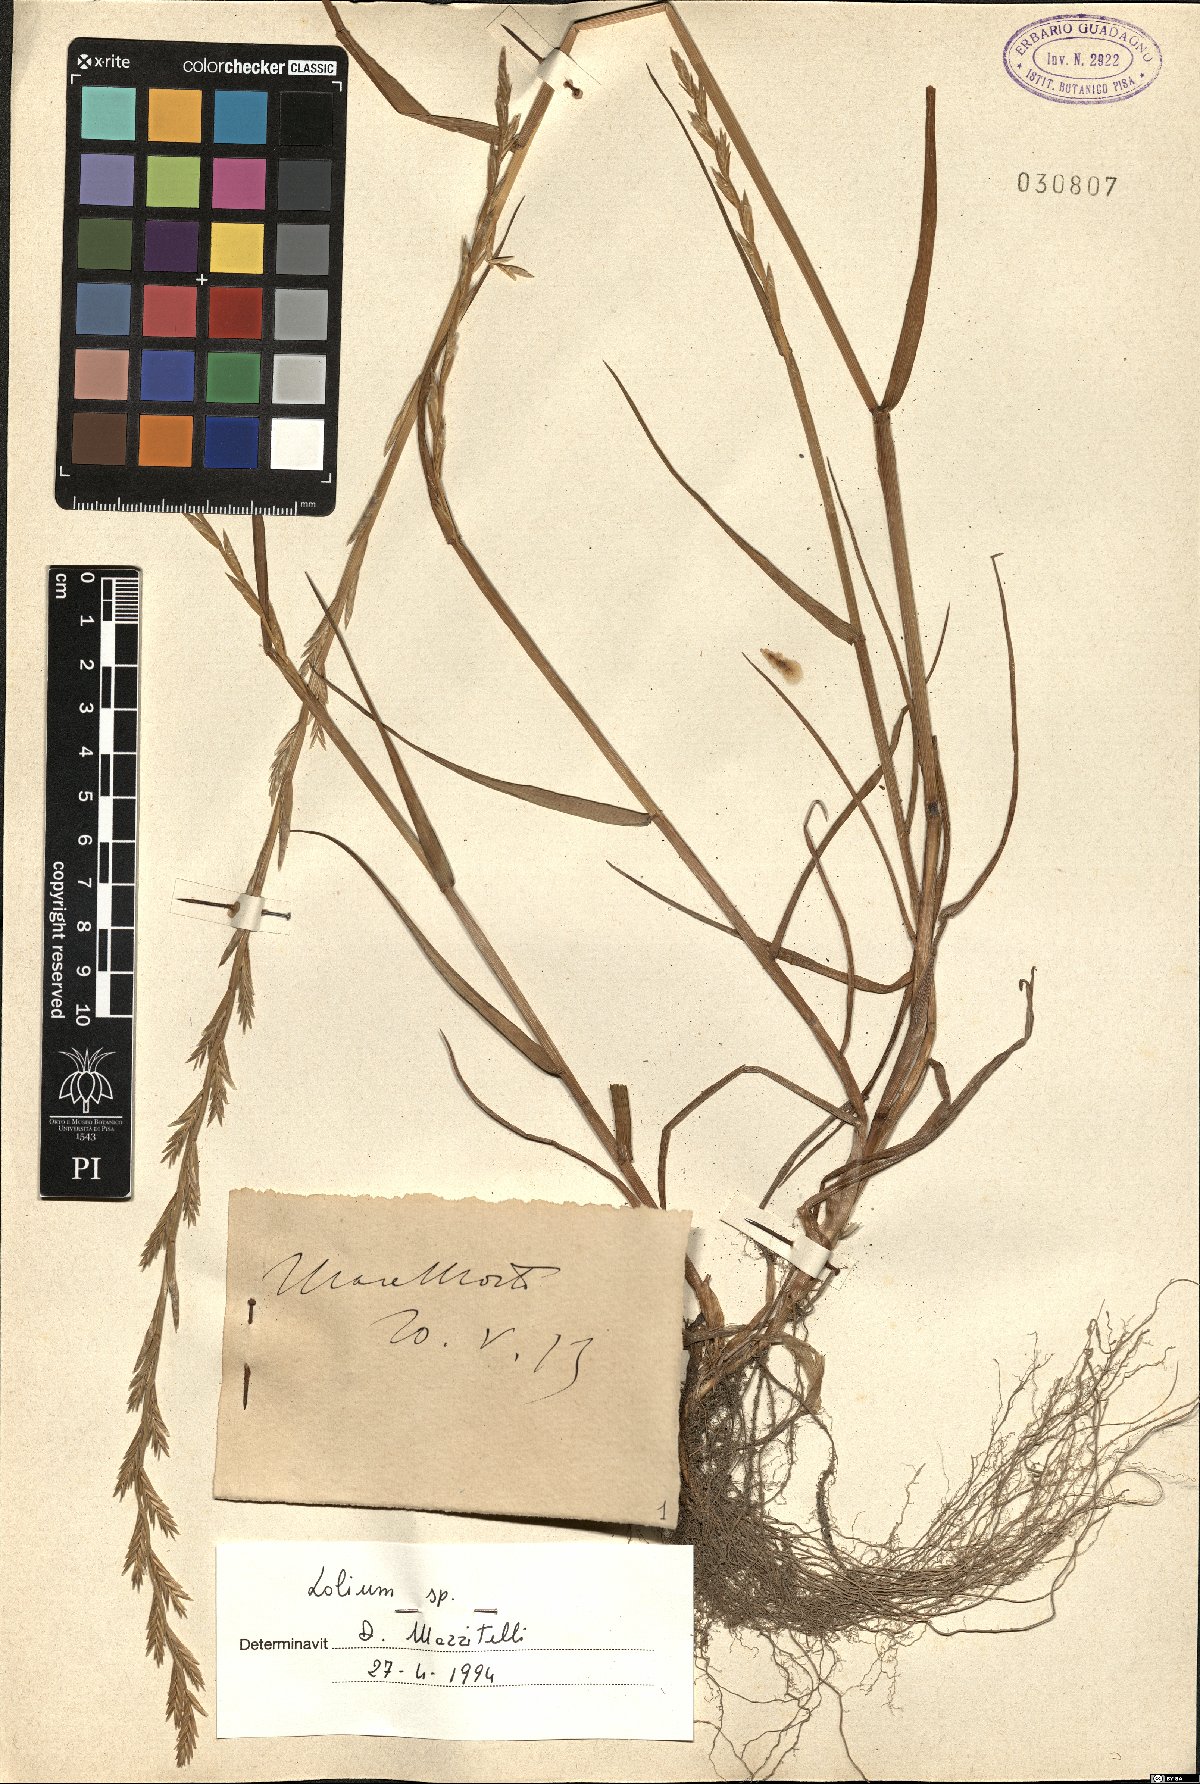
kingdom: Plantae
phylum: Tracheophyta
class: Liliopsida
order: Poales
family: Poaceae
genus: Lolium
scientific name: Lolium
